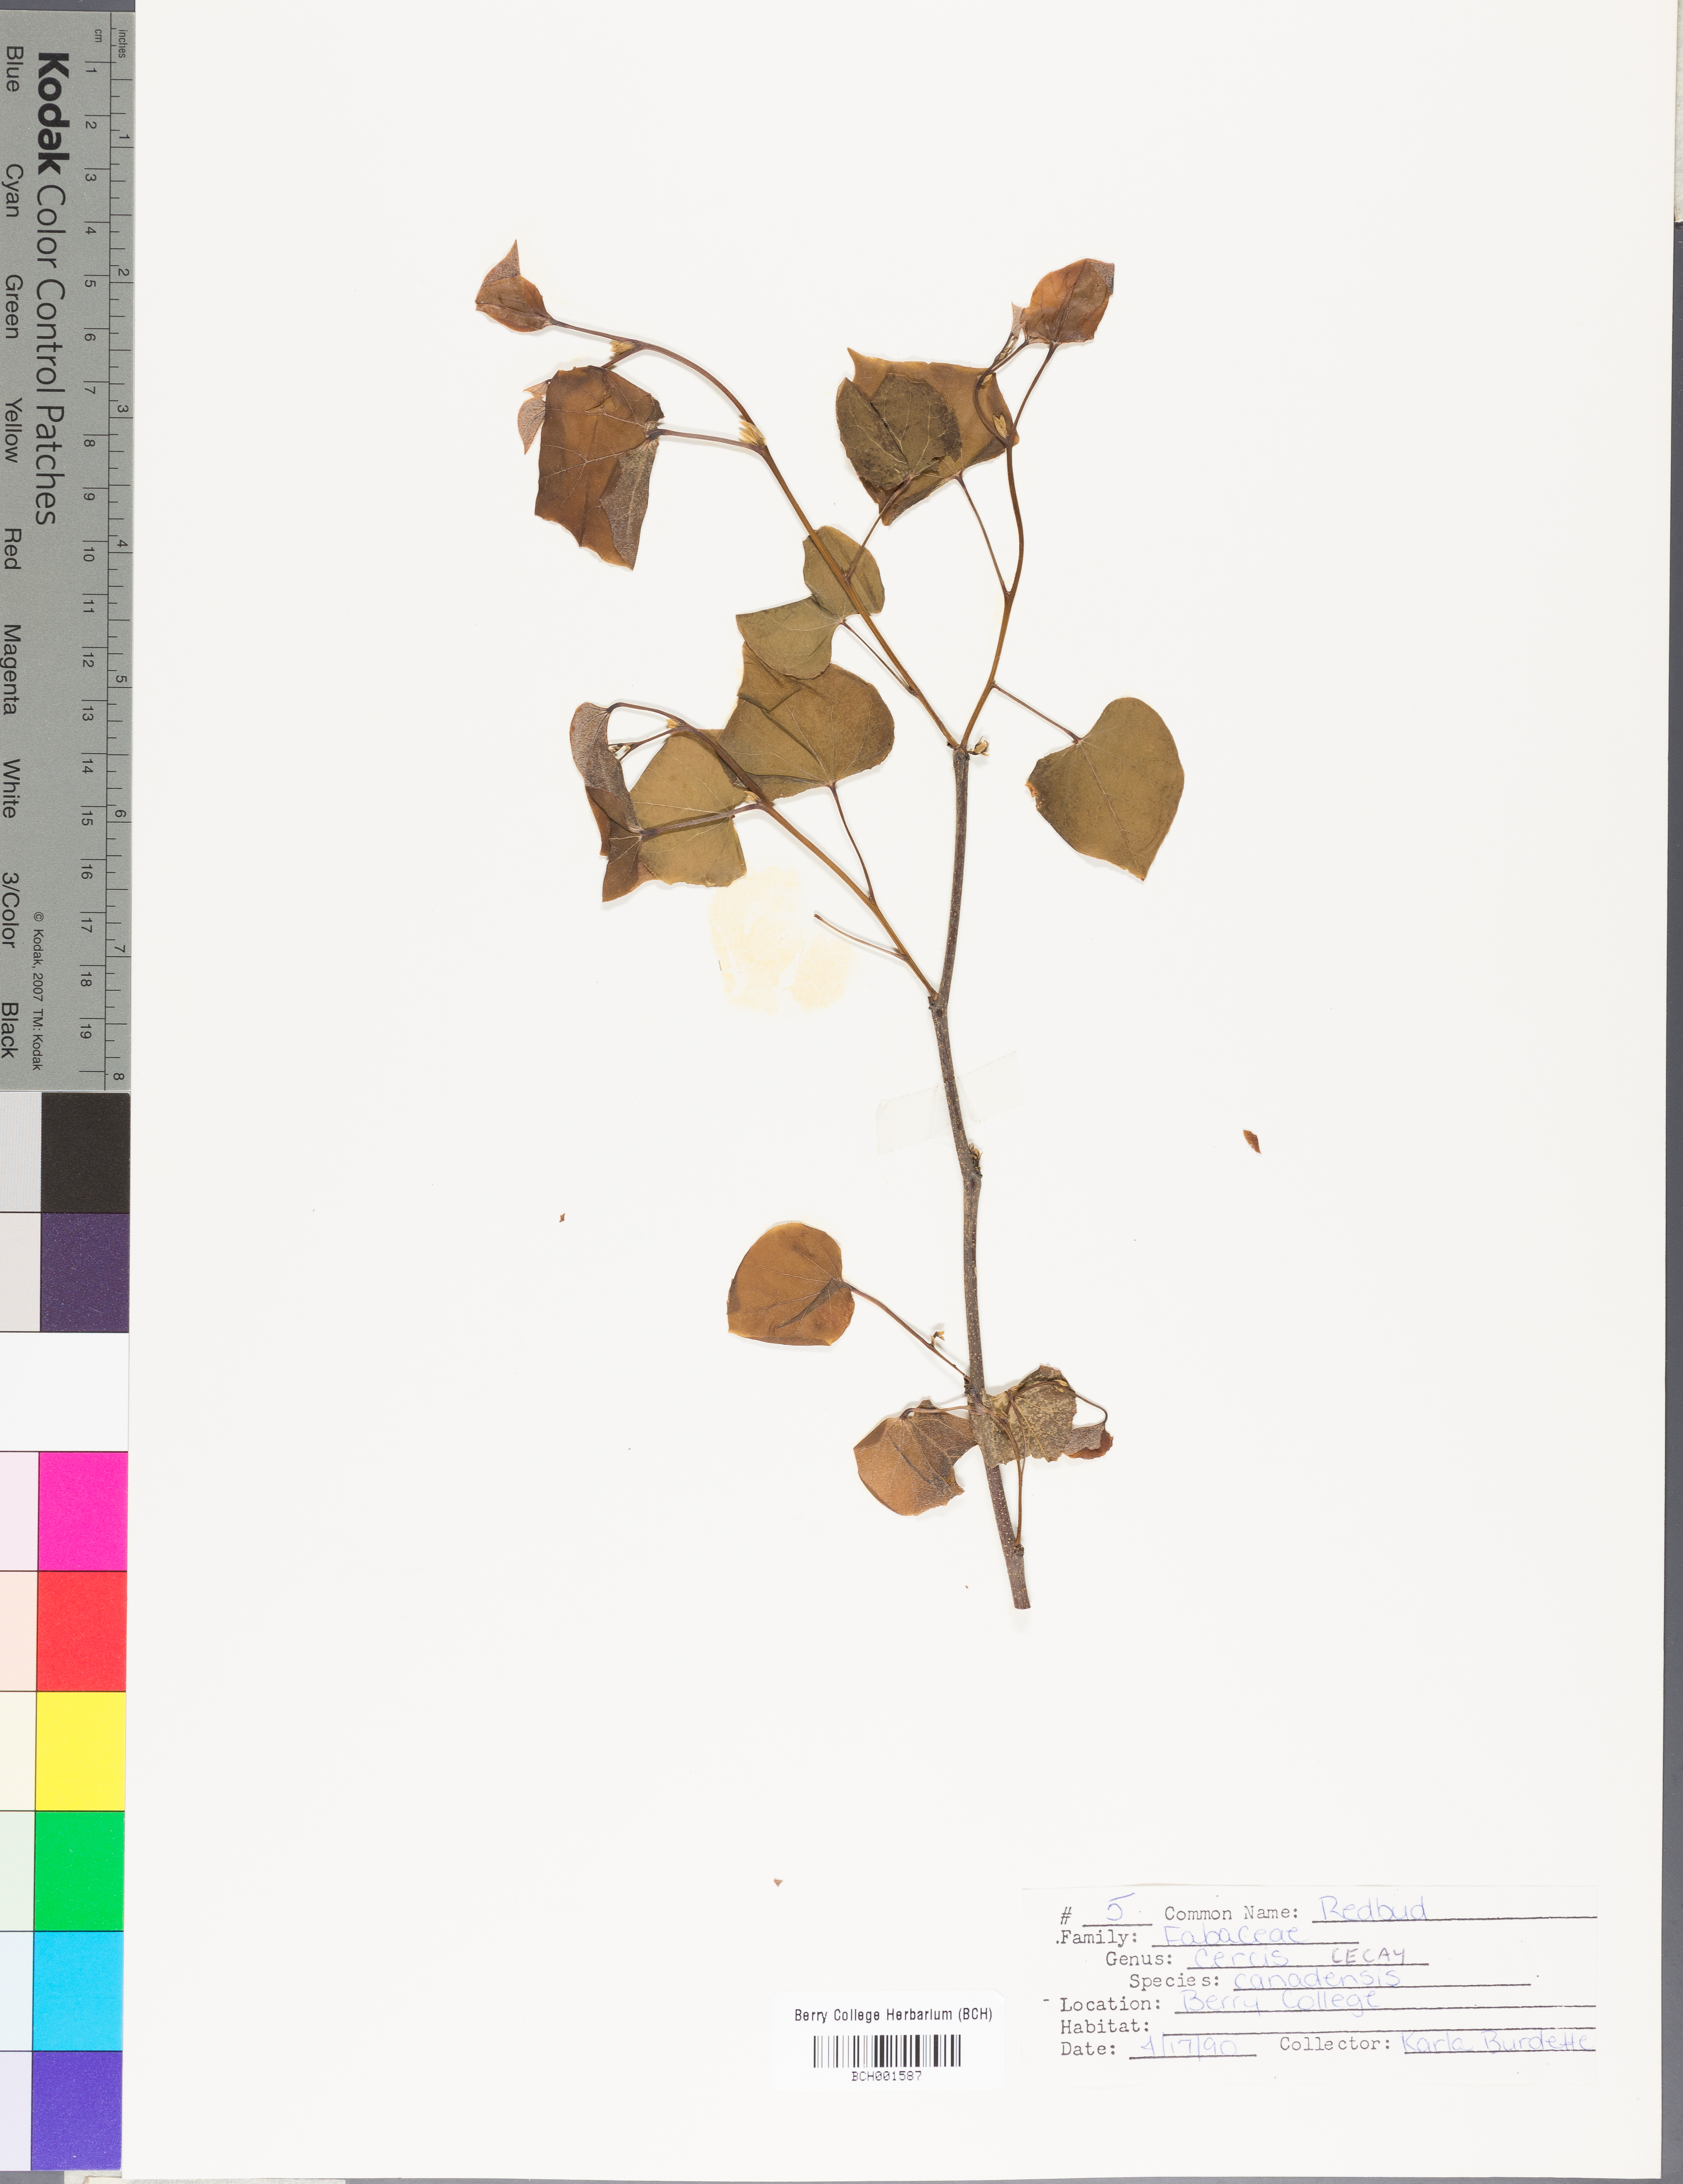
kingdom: Plantae
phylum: Tracheophyta
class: Magnoliopsida
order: Fabales
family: Fabaceae
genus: Cercis
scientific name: Cercis canadensis
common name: Eastern redbud
